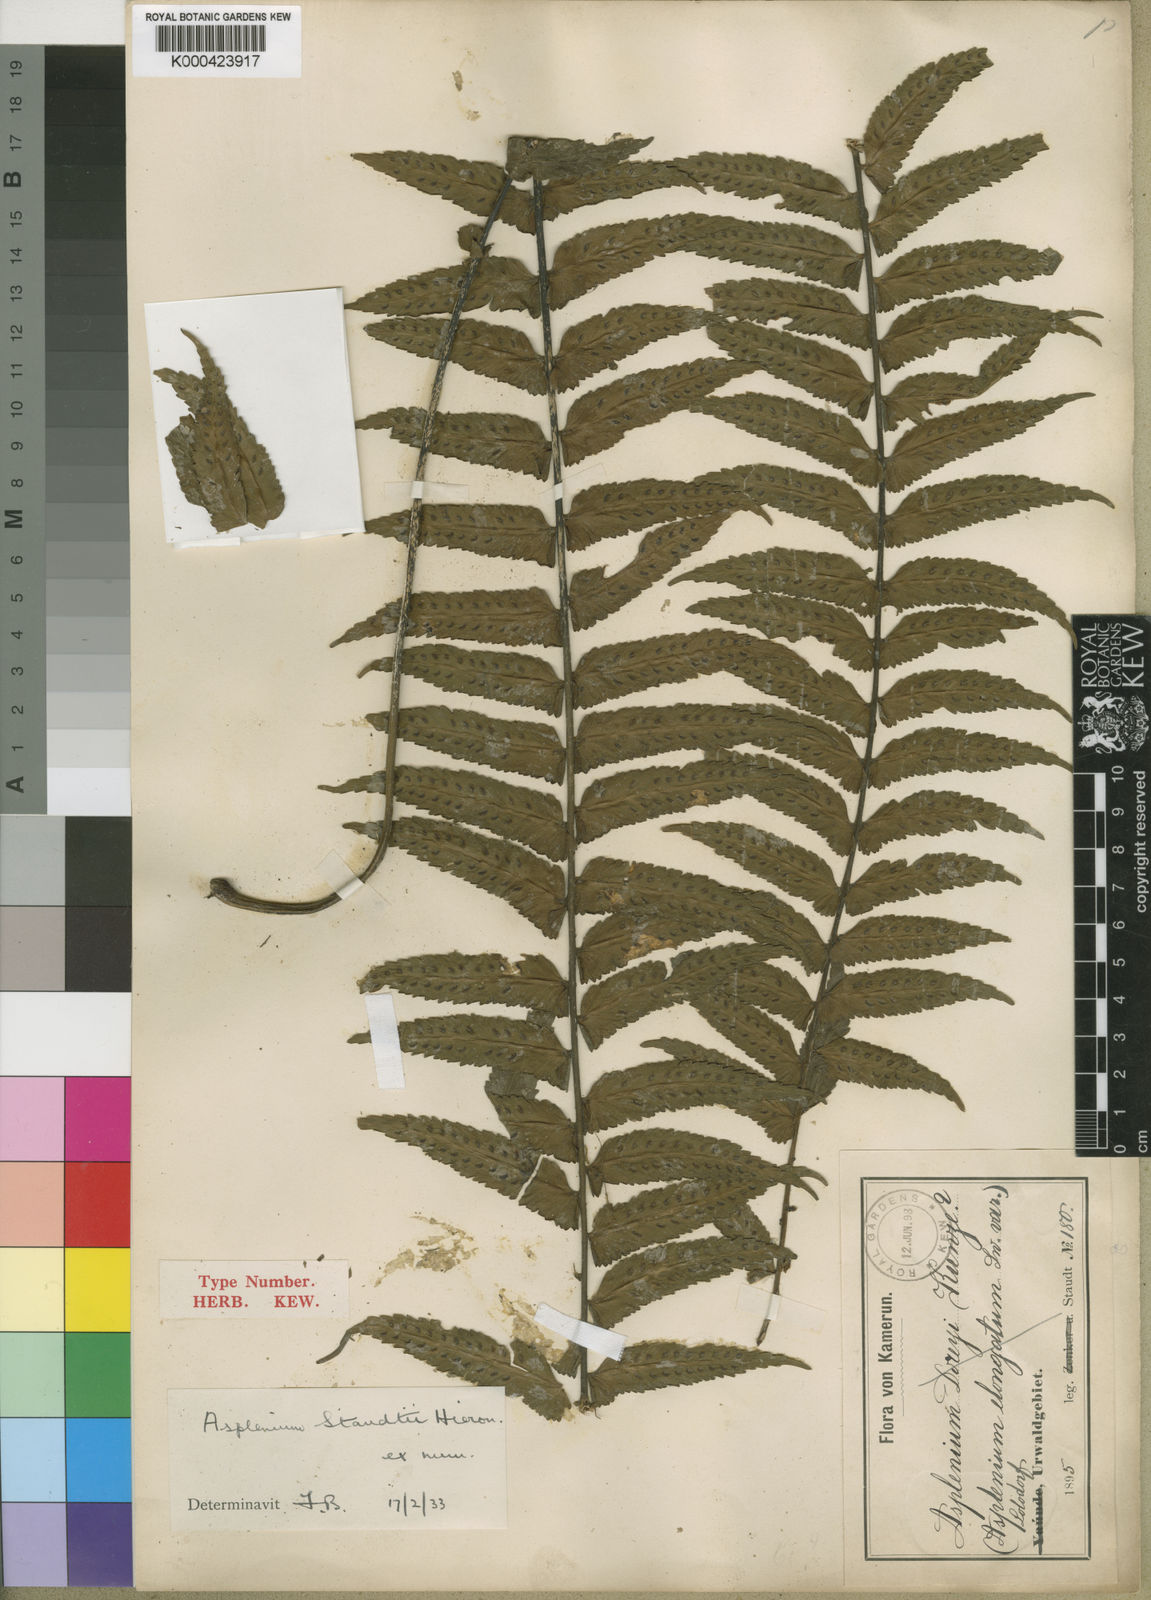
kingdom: Plantae
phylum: Tracheophyta
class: Polypodiopsida
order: Polypodiales
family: Aspleniaceae
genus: Asplenium
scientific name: Asplenium tenerum
